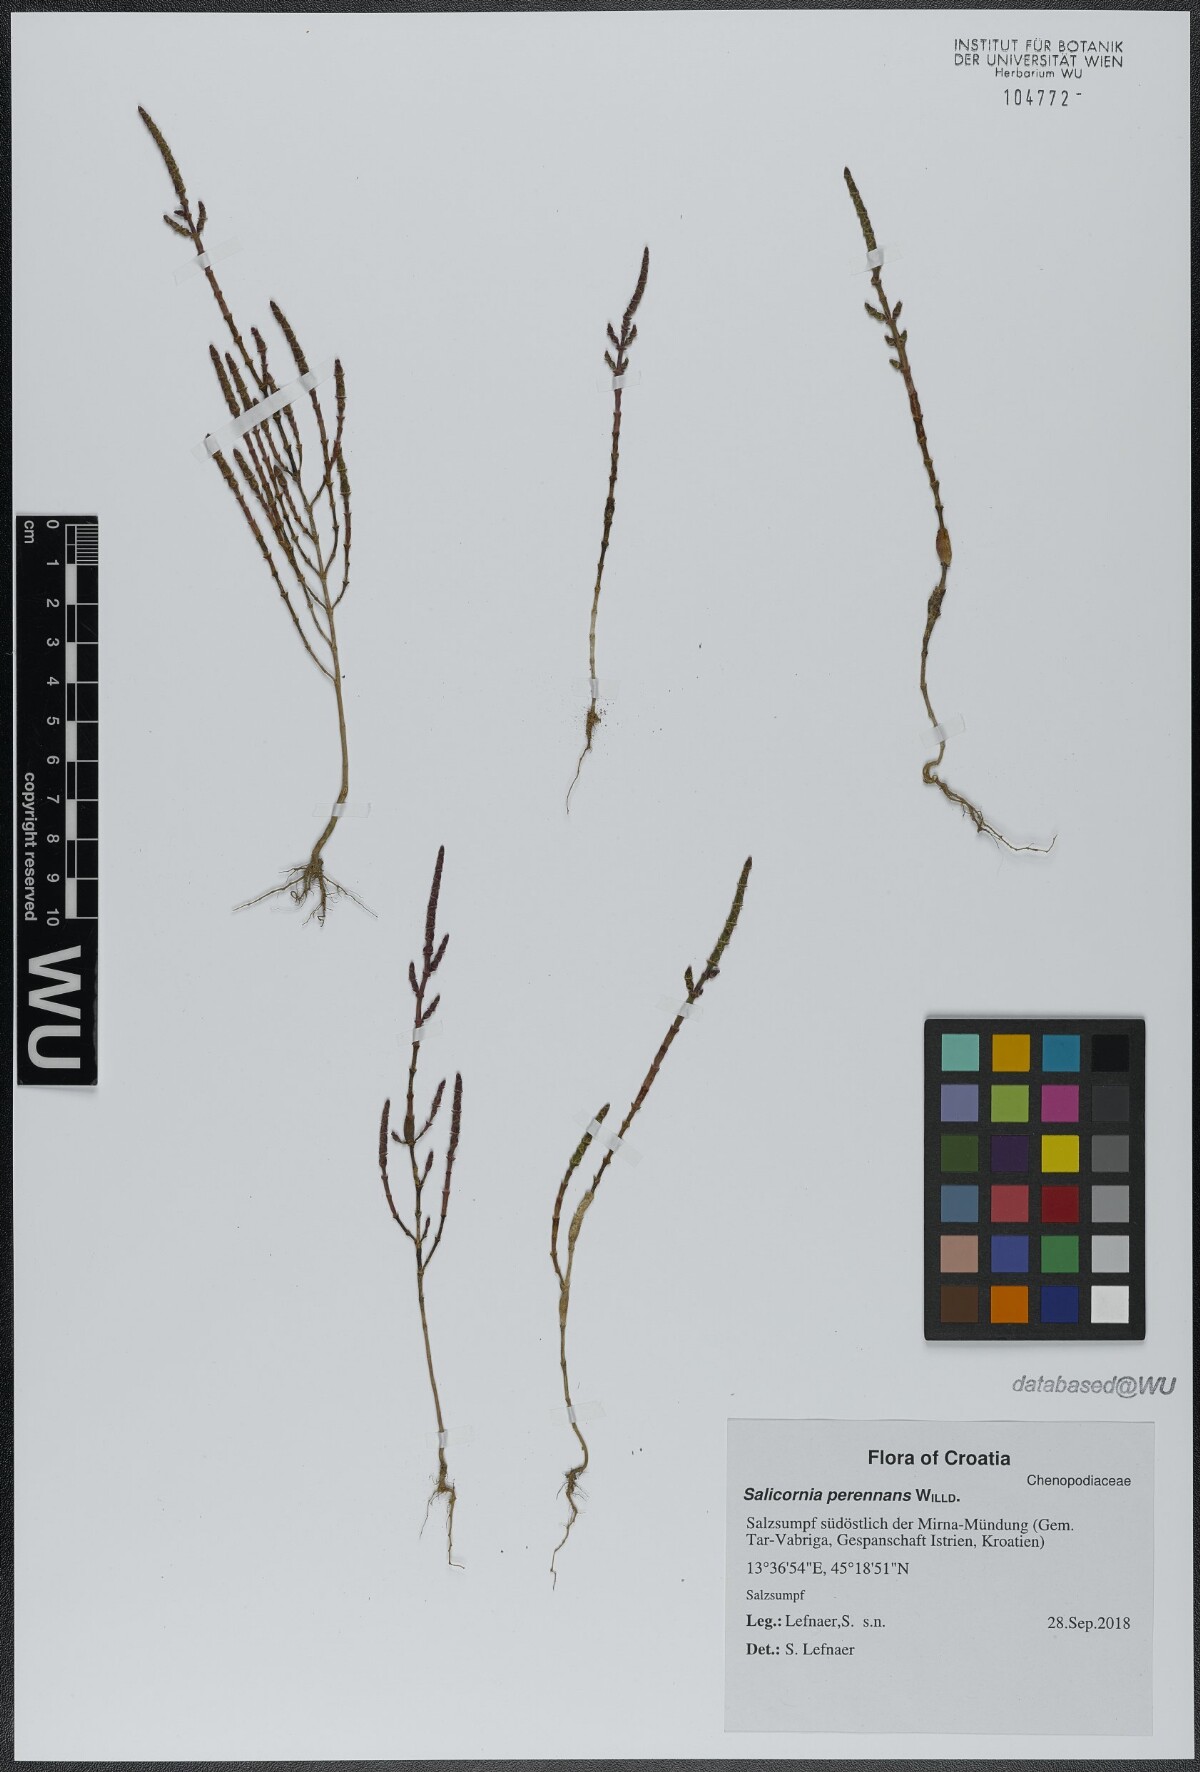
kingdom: Plantae
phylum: Tracheophyta
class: Magnoliopsida
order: Caryophyllales
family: Amaranthaceae
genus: Salicornia
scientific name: Salicornia perennans
